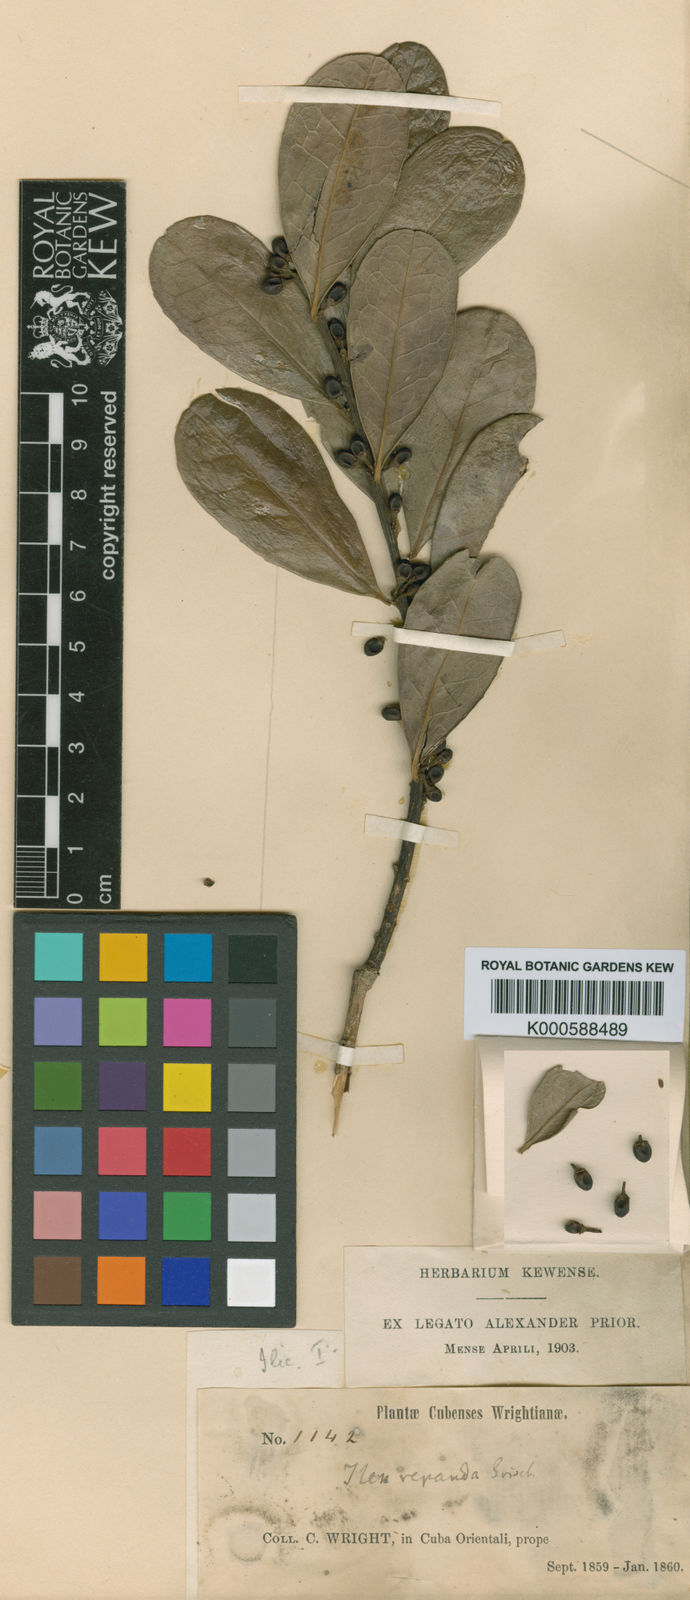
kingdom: Plantae
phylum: Tracheophyta
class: Magnoliopsida
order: Aquifoliales
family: Aquifoliaceae
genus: Ilex
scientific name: Ilex nitida
